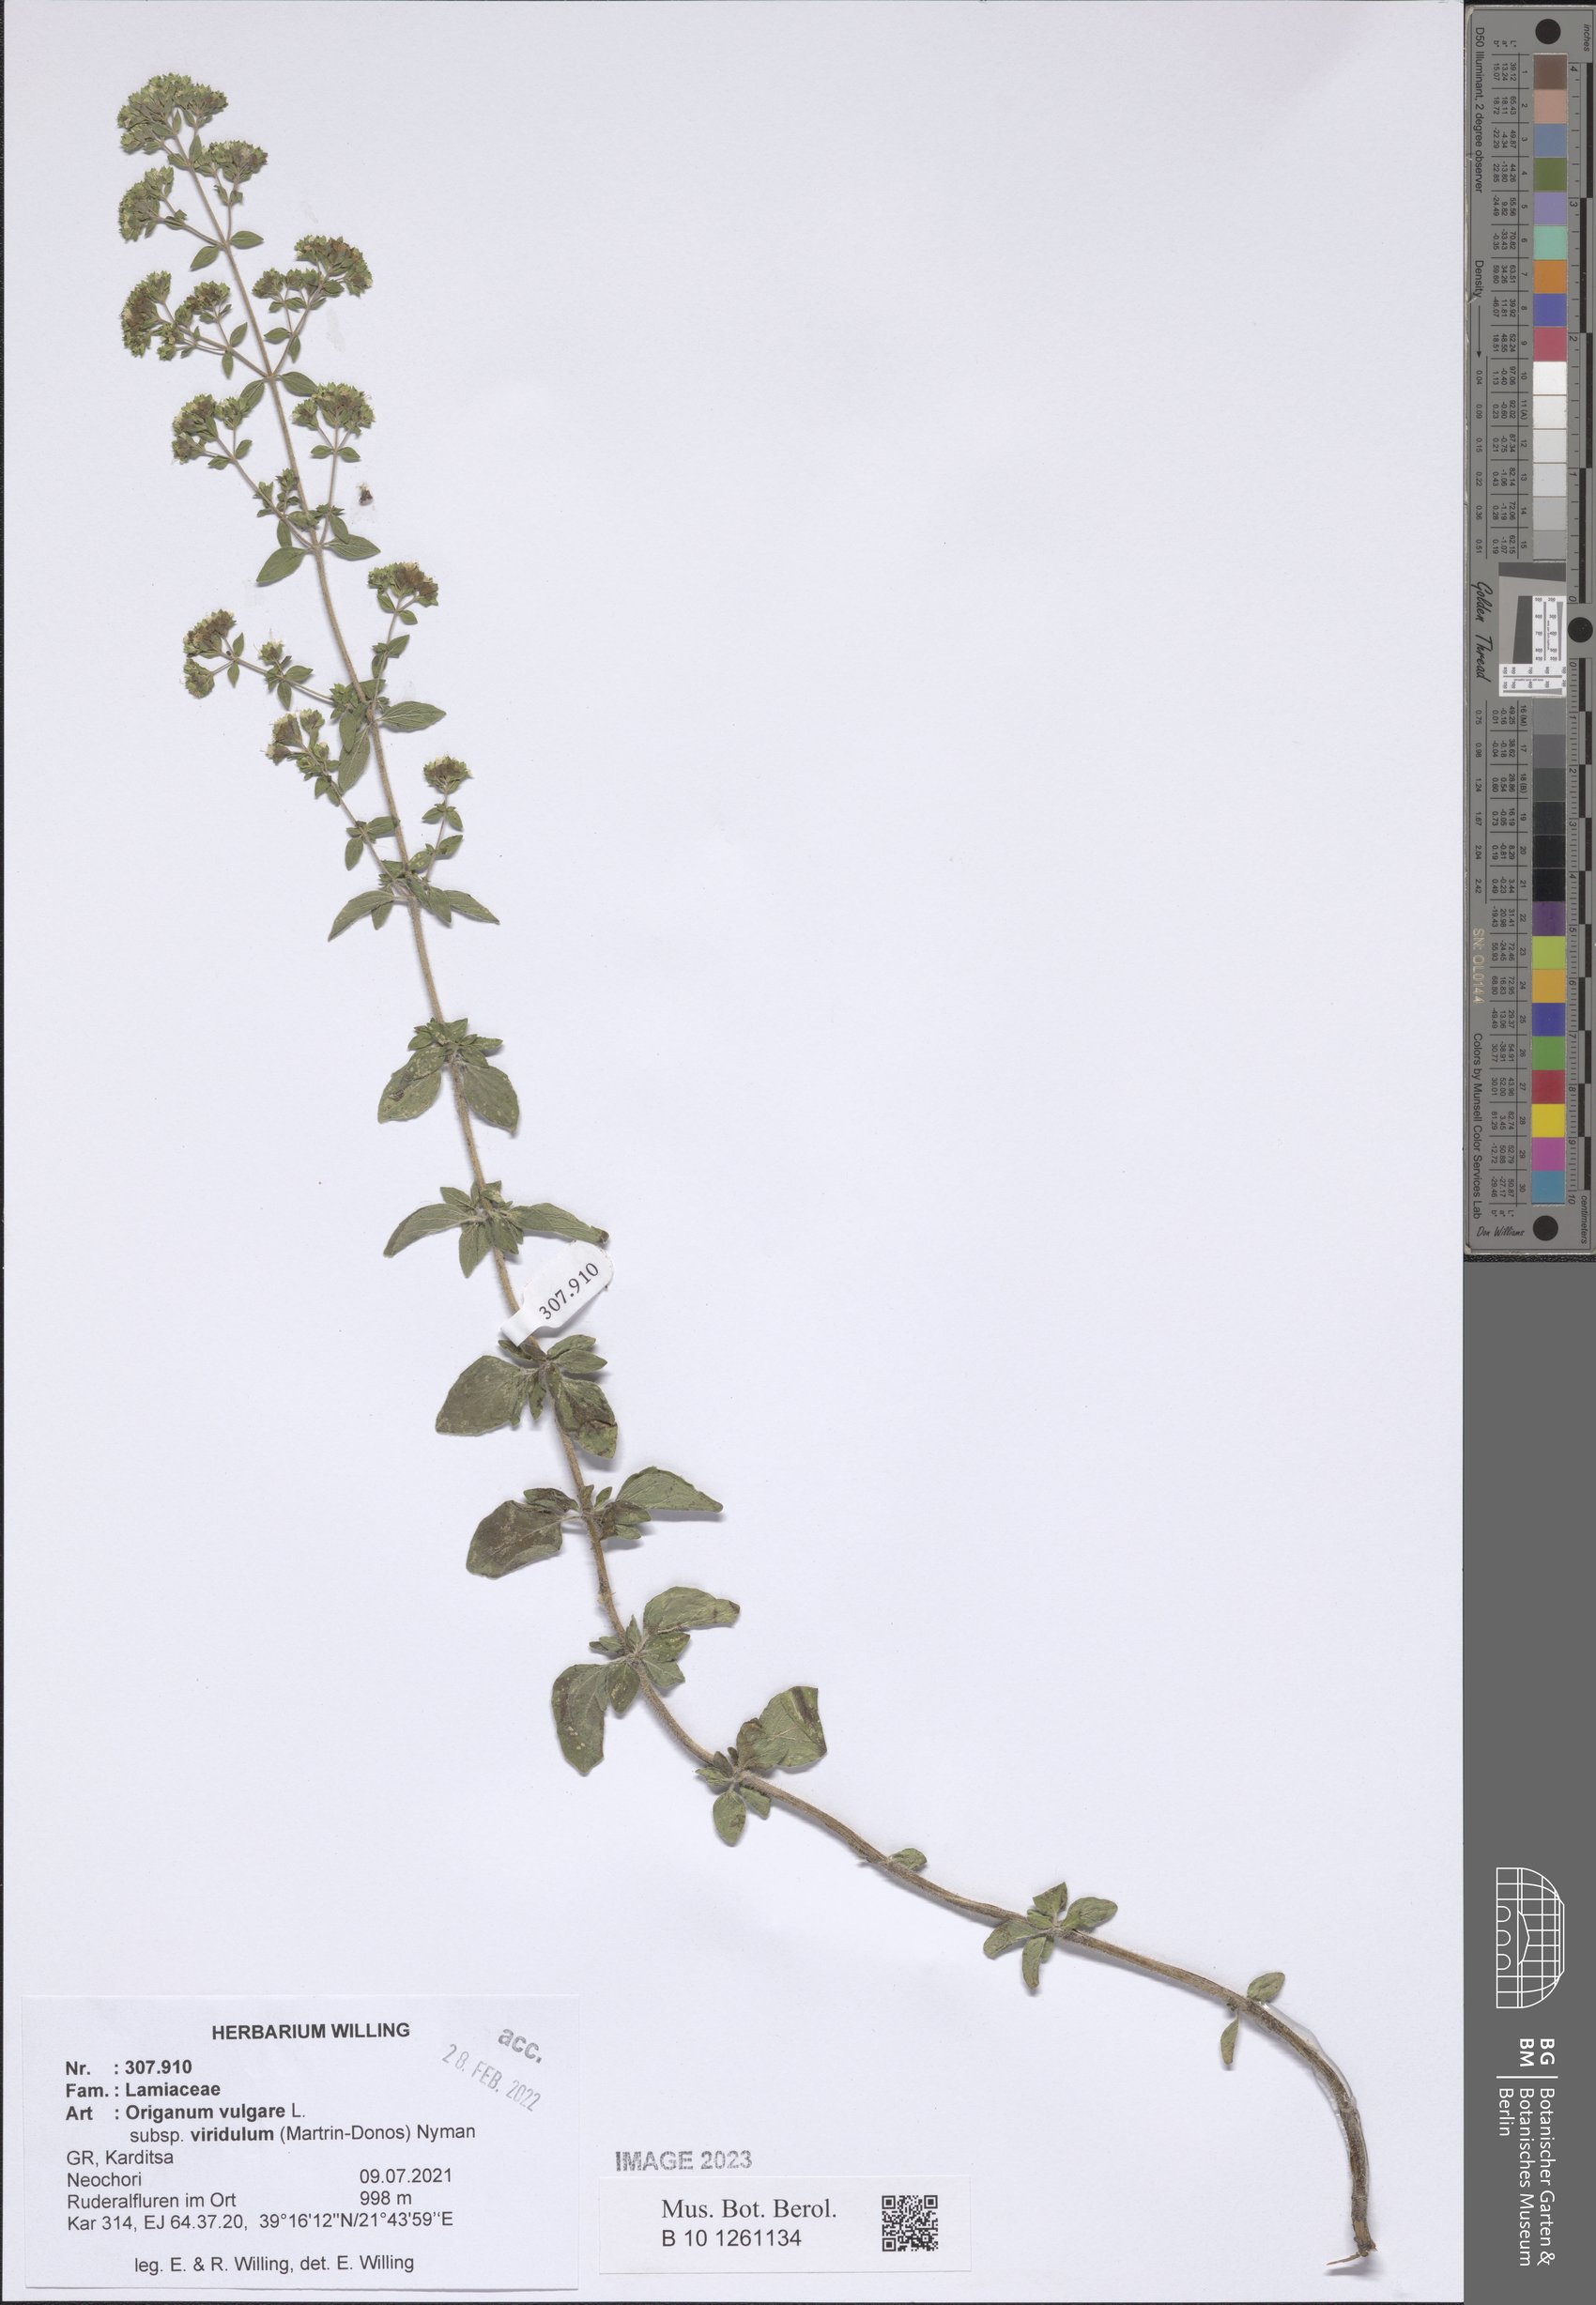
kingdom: Plantae
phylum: Tracheophyta
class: Magnoliopsida
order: Lamiales
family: Lamiaceae
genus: Origanum
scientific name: Origanum vulgare
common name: Wild marjoram
